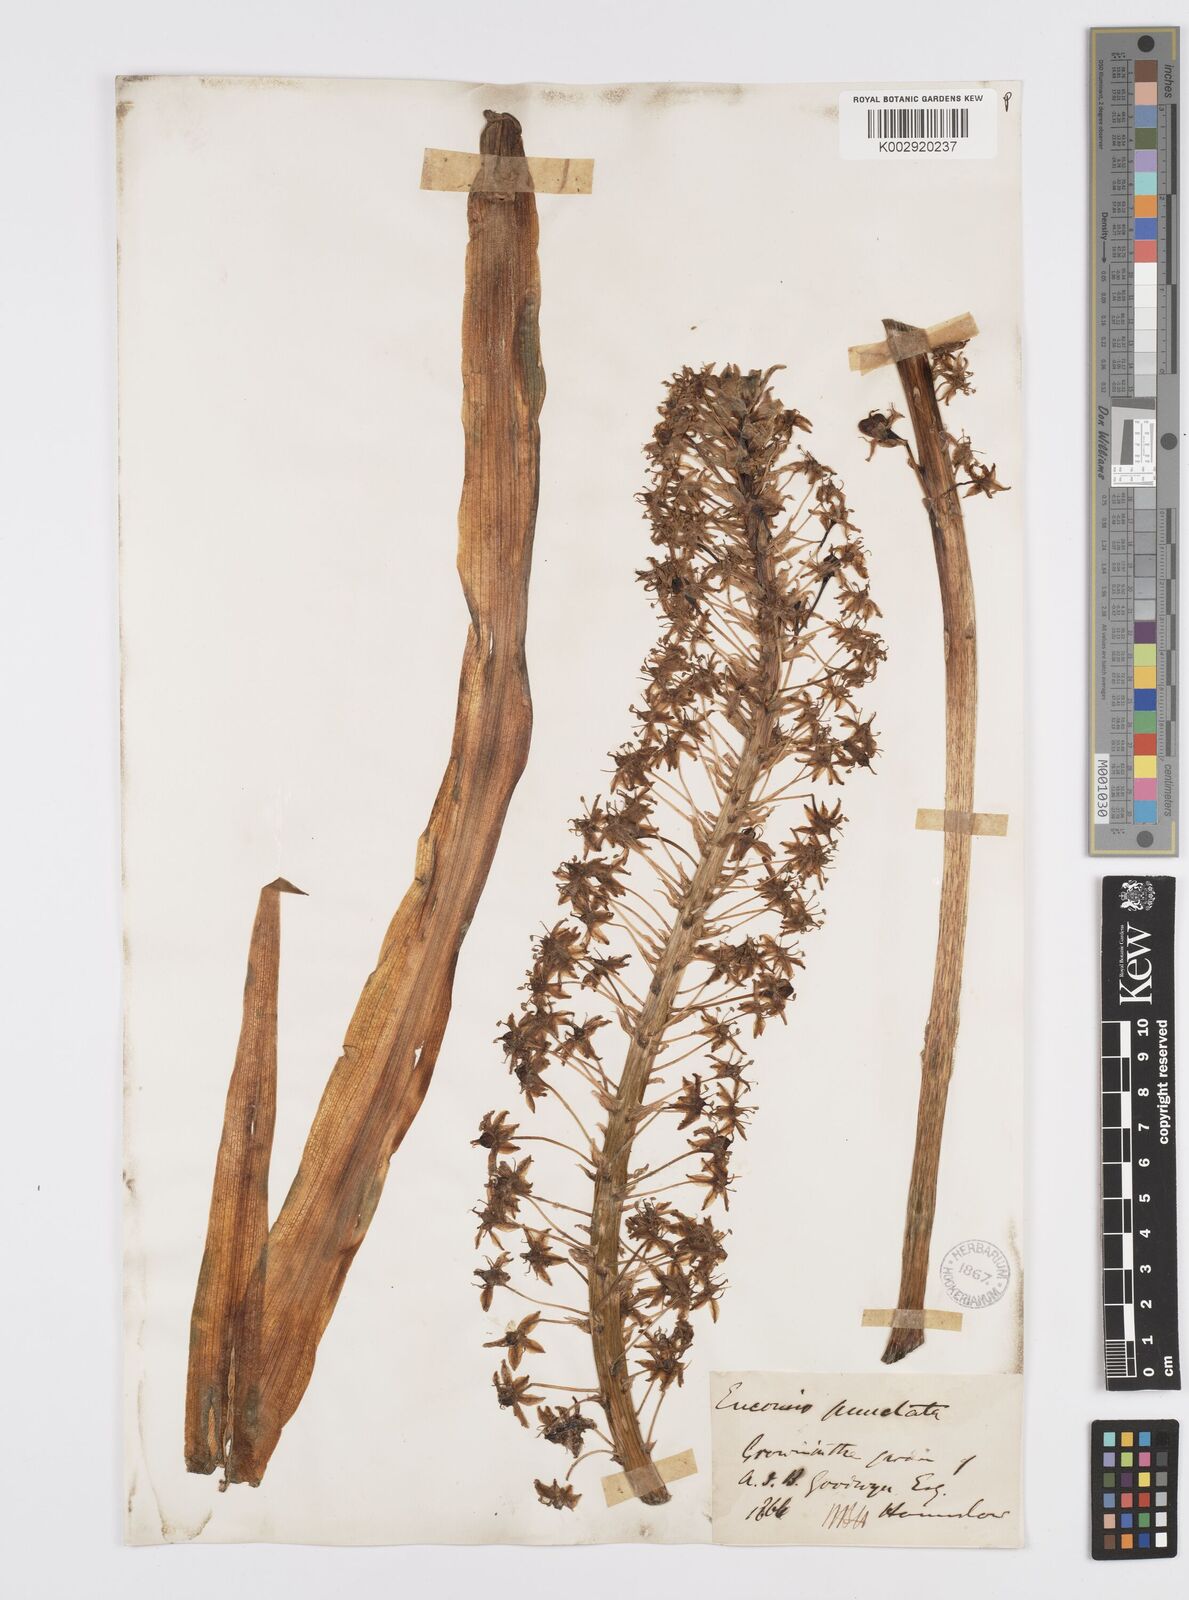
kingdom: Plantae
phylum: Tracheophyta
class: Liliopsida
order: Asparagales
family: Asparagaceae
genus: Eucomis
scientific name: Eucomis comosa
